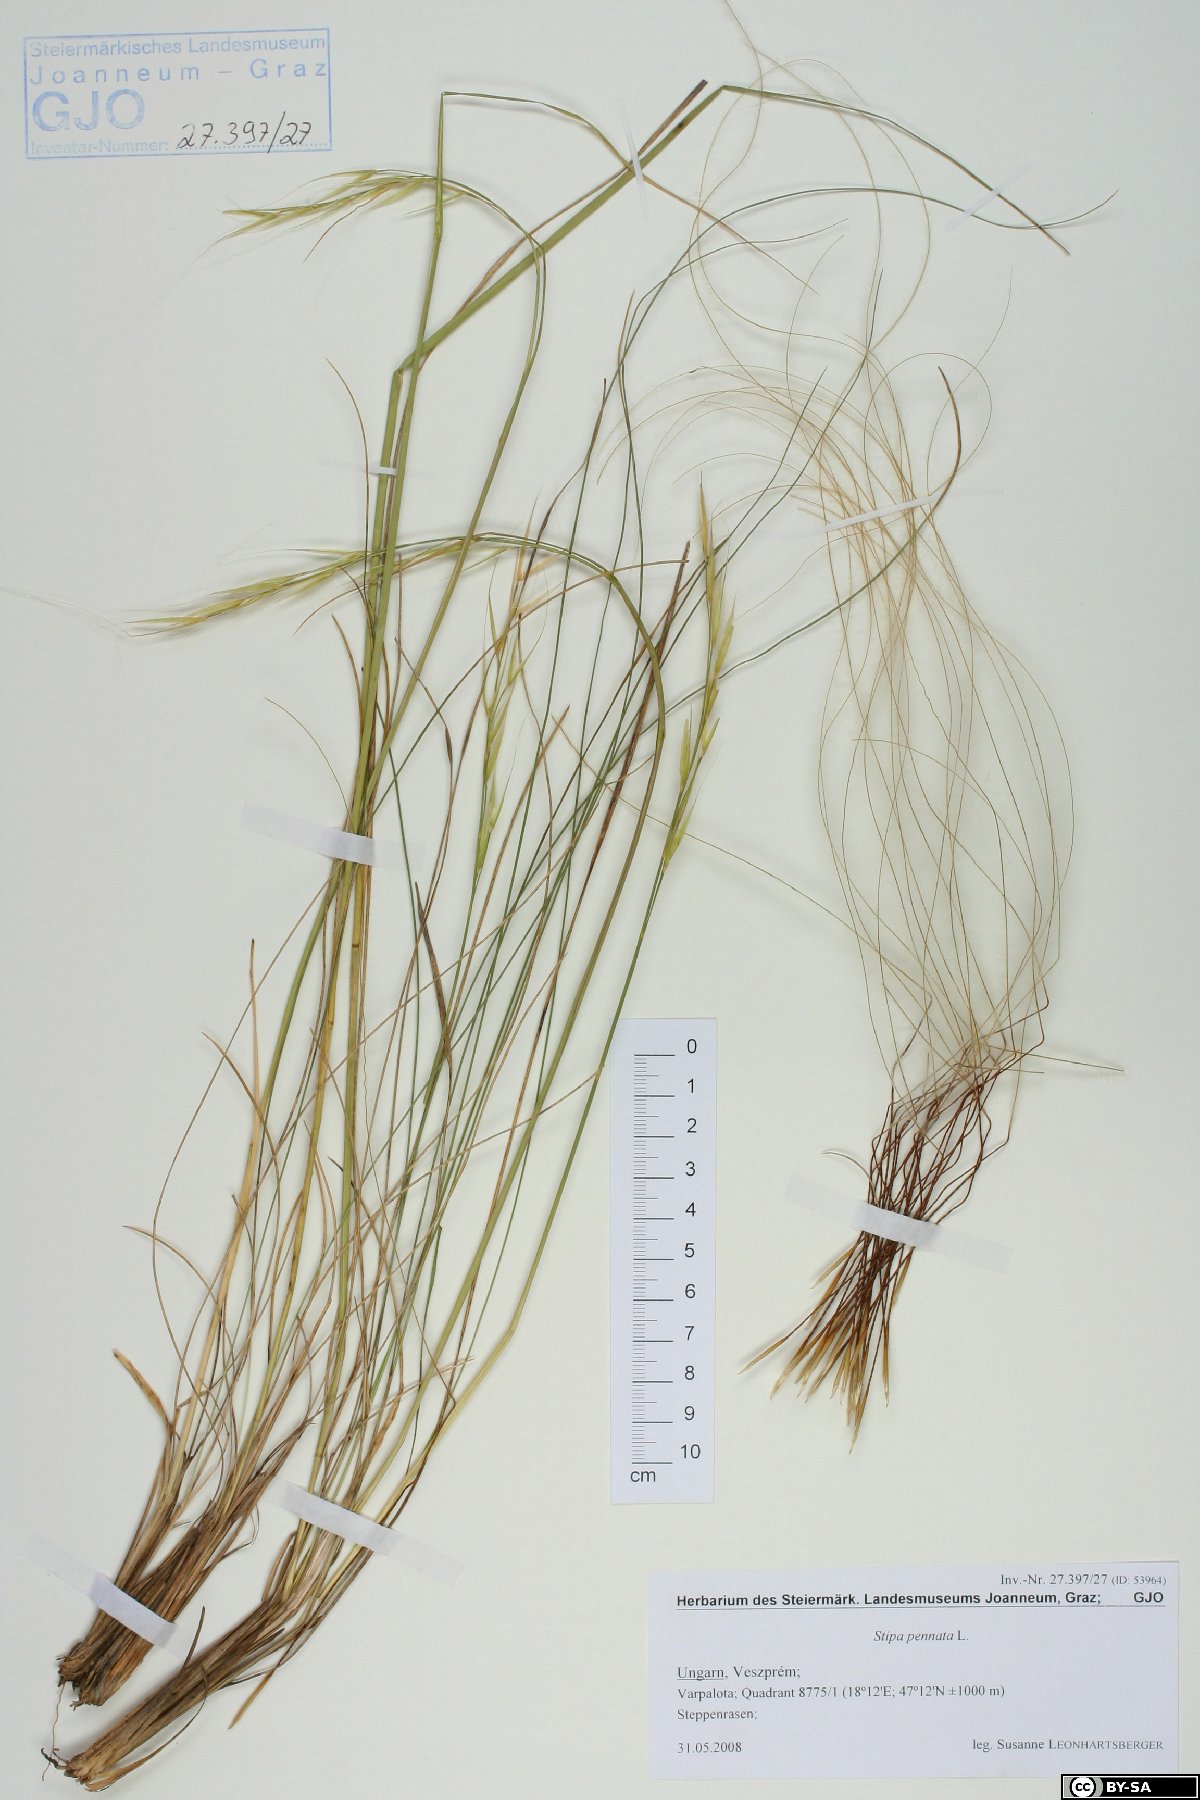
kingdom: Plantae
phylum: Tracheophyta
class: Liliopsida
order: Poales
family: Poaceae
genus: Stipa
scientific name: Stipa pennata
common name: European feather grass
